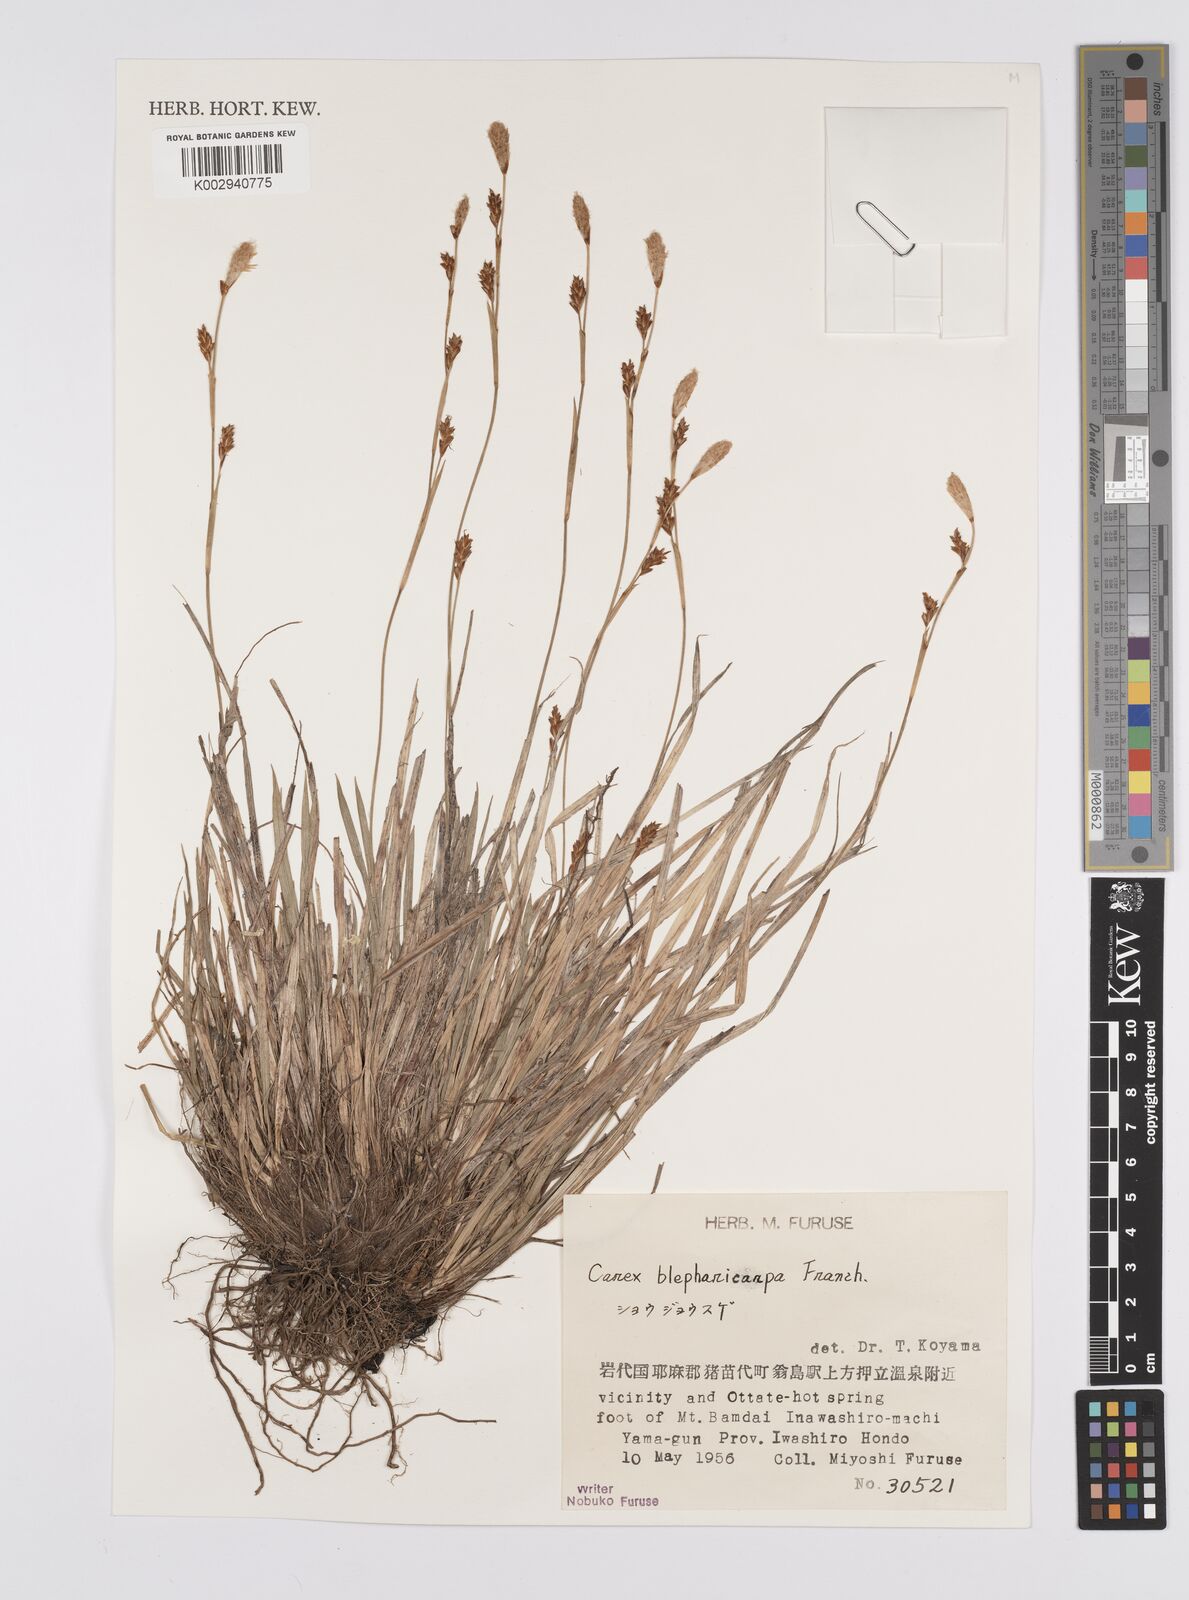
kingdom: Plantae
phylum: Tracheophyta
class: Liliopsida
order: Poales
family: Cyperaceae
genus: Carex
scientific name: Carex blepharicarpa
